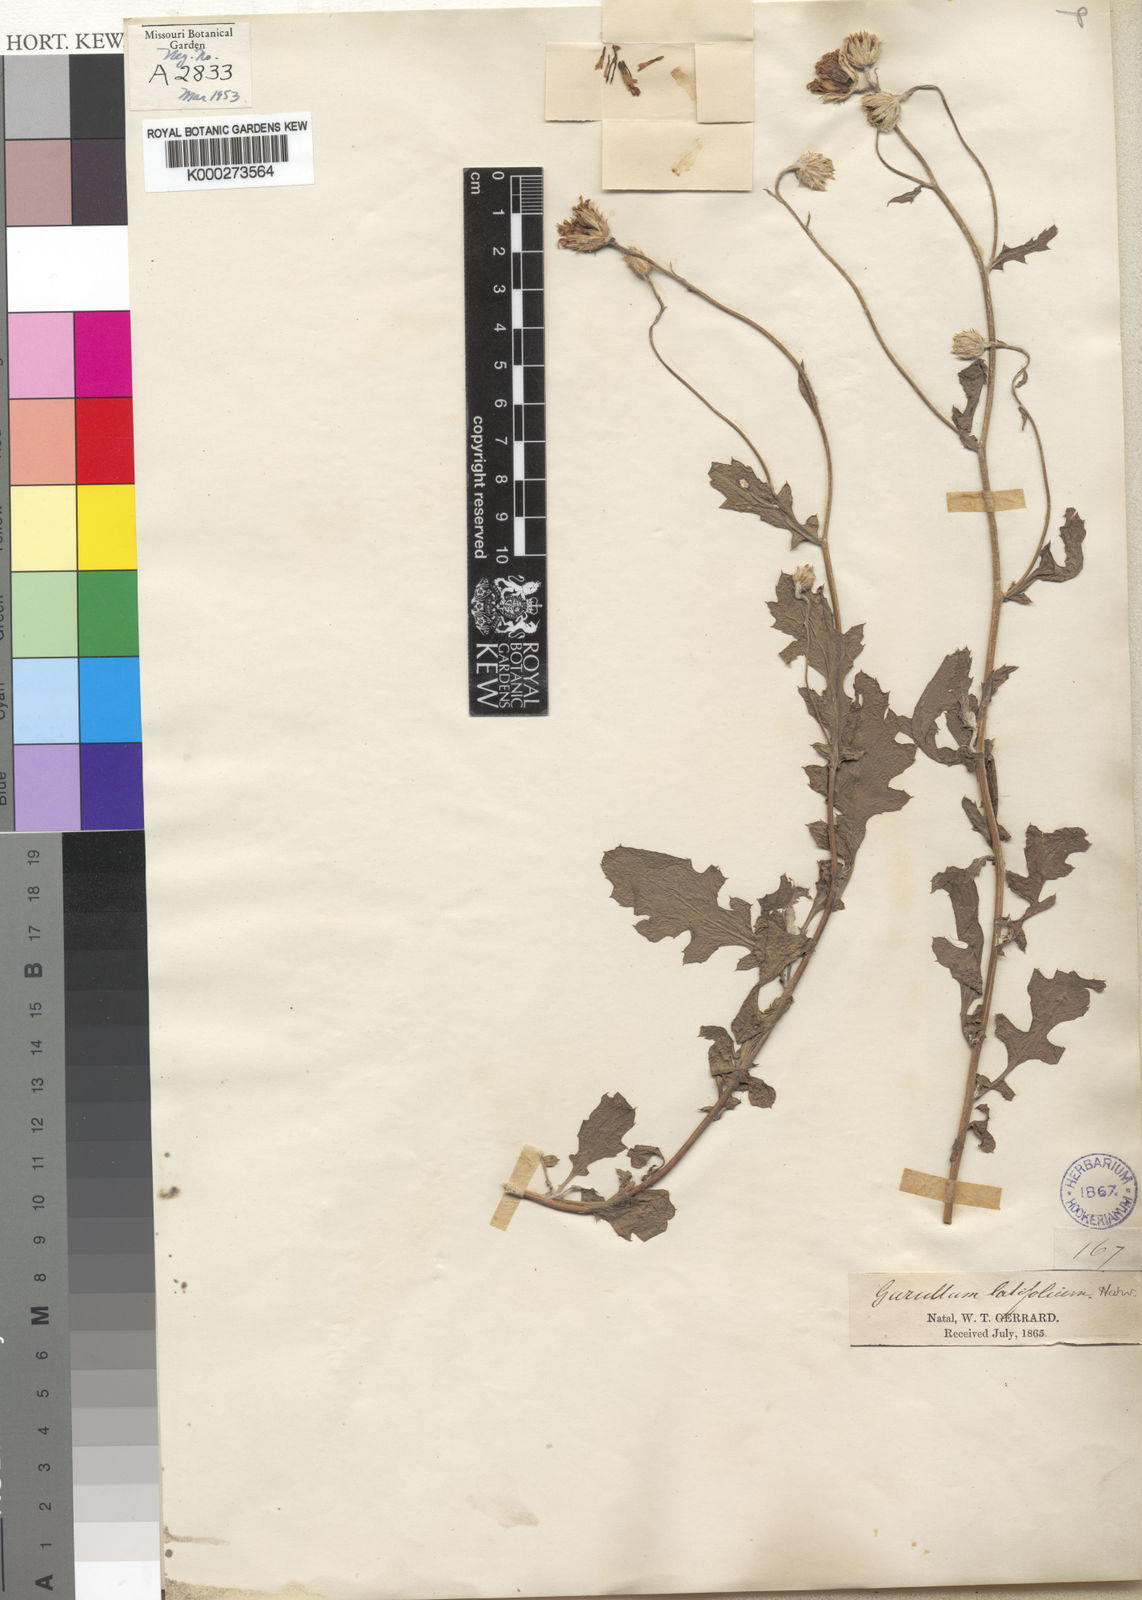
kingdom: Plantae
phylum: Tracheophyta
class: Magnoliopsida
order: Asterales
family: Asteraceae
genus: Garuleum
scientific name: Garuleum latifolium
